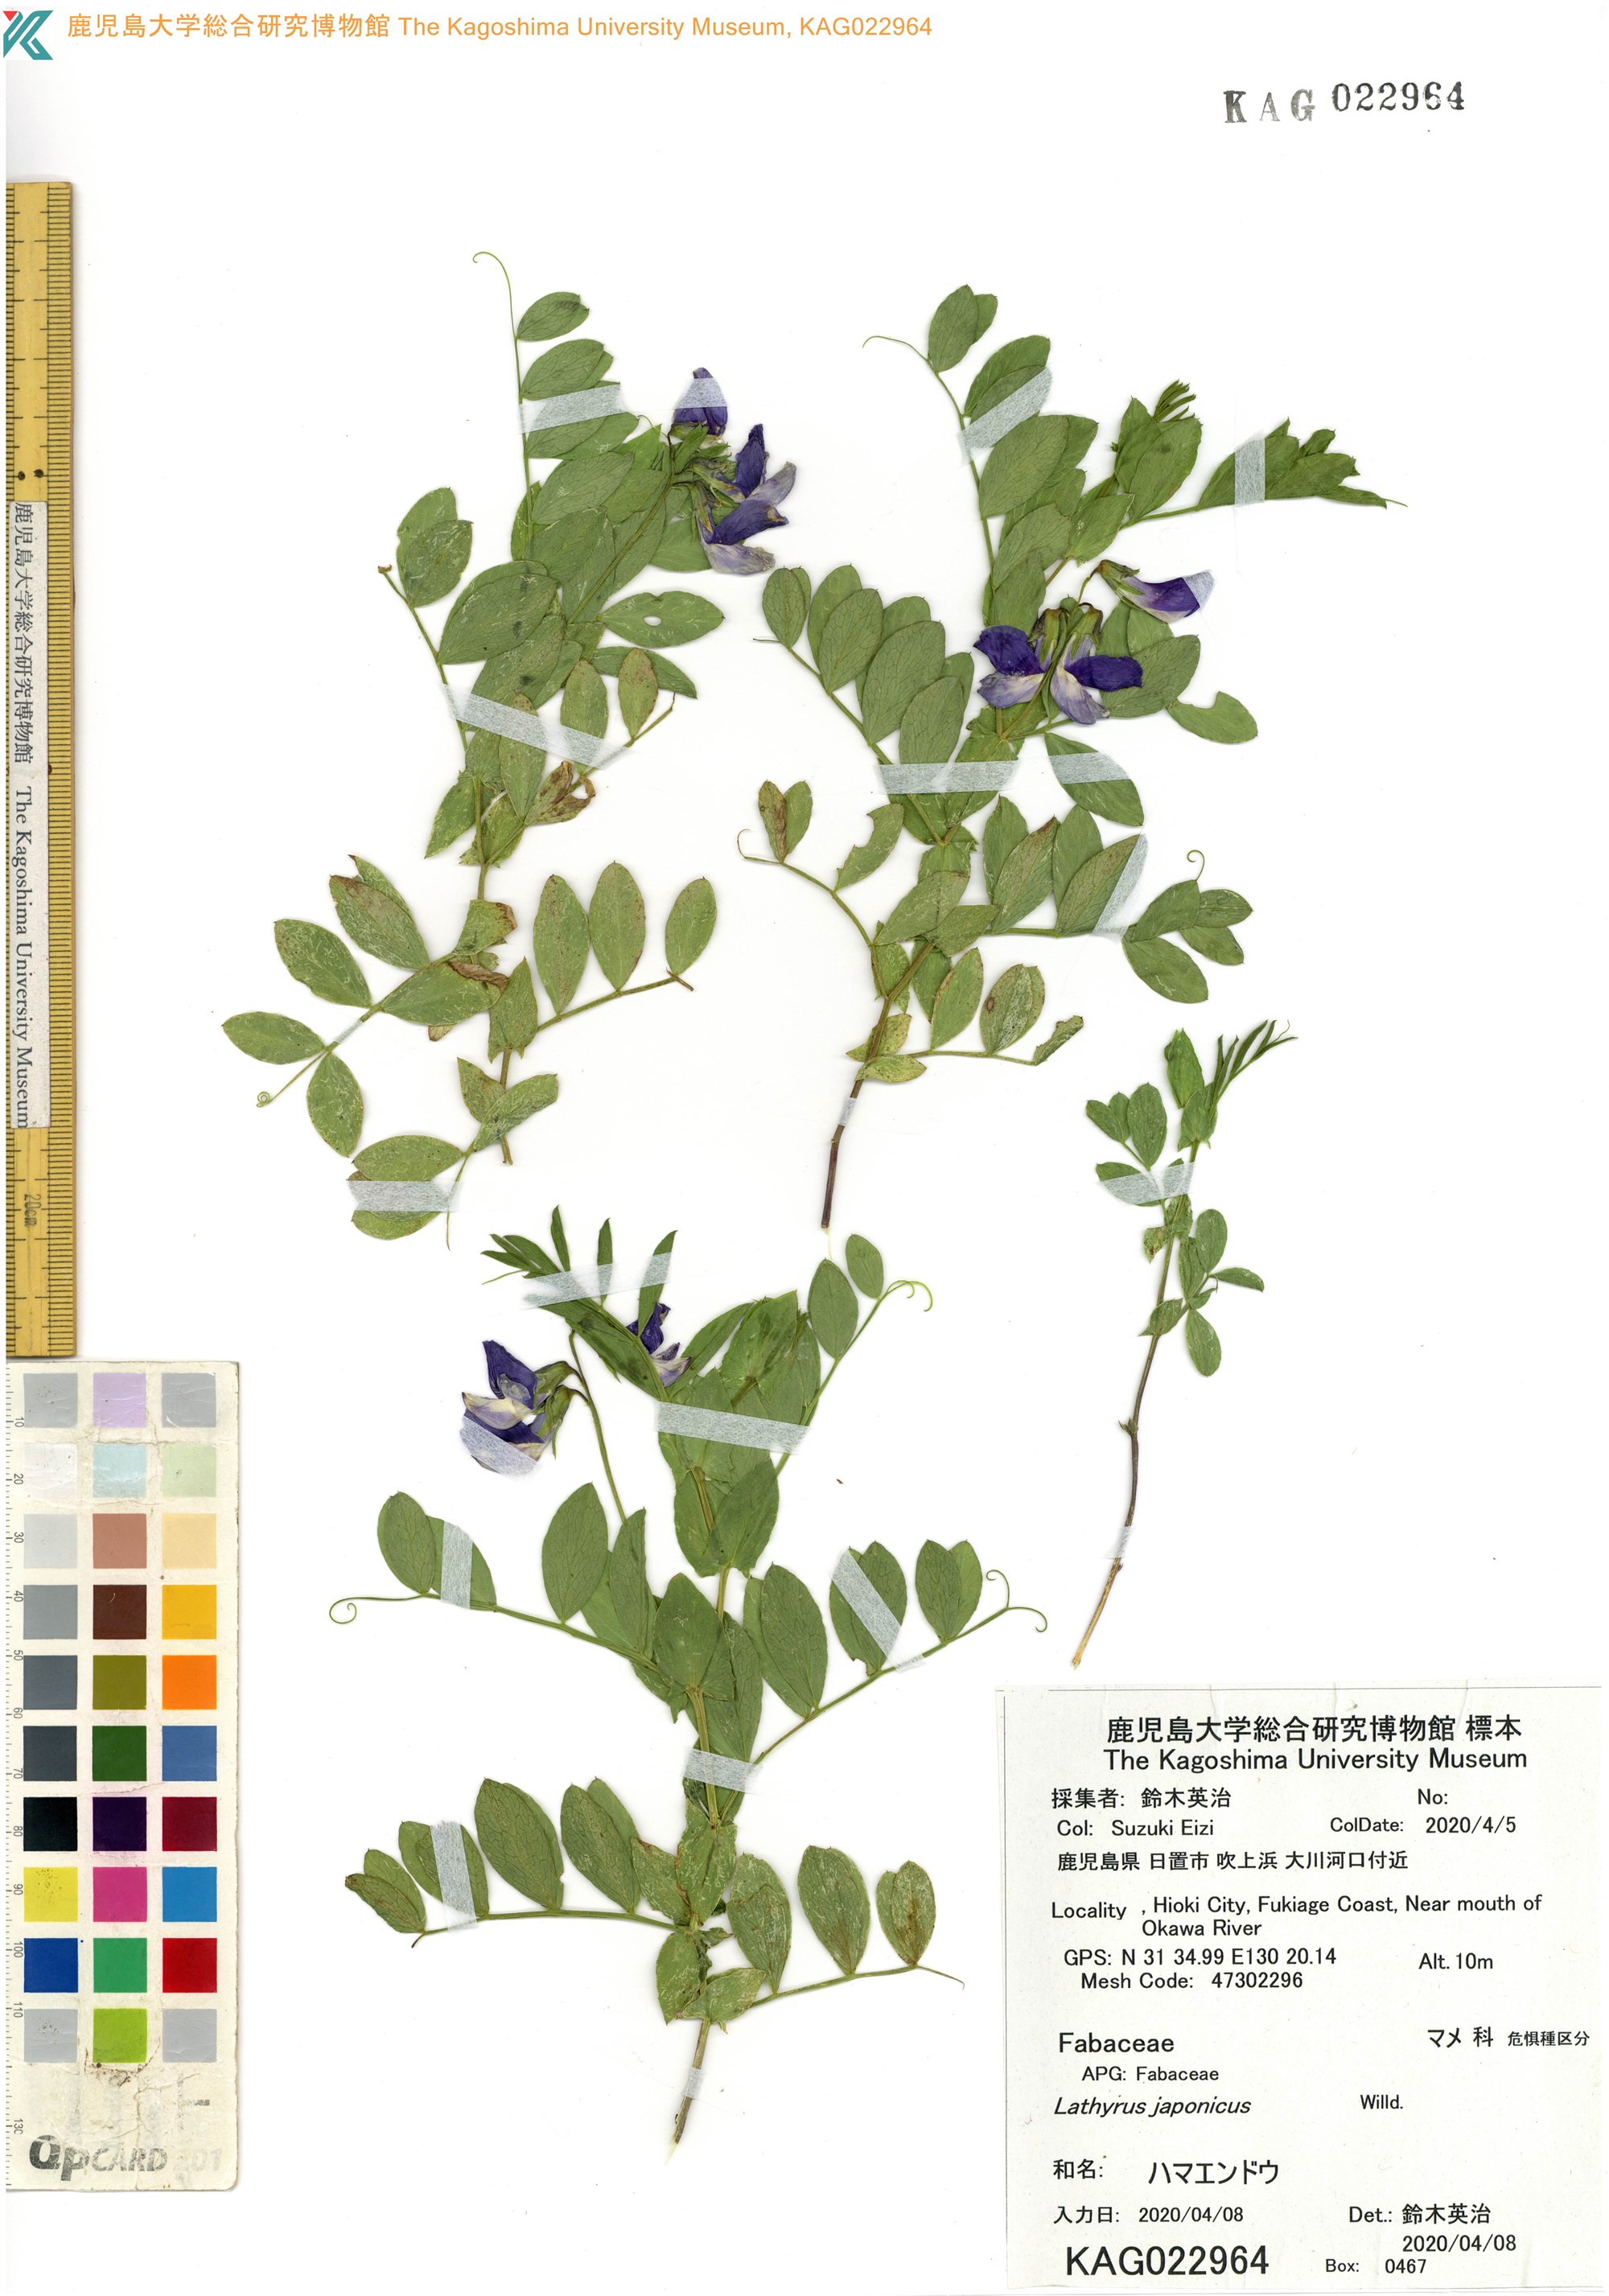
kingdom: Plantae
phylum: Tracheophyta
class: Magnoliopsida
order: Fabales
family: Fabaceae
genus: Lathyrus
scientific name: Lathyrus japonicus
